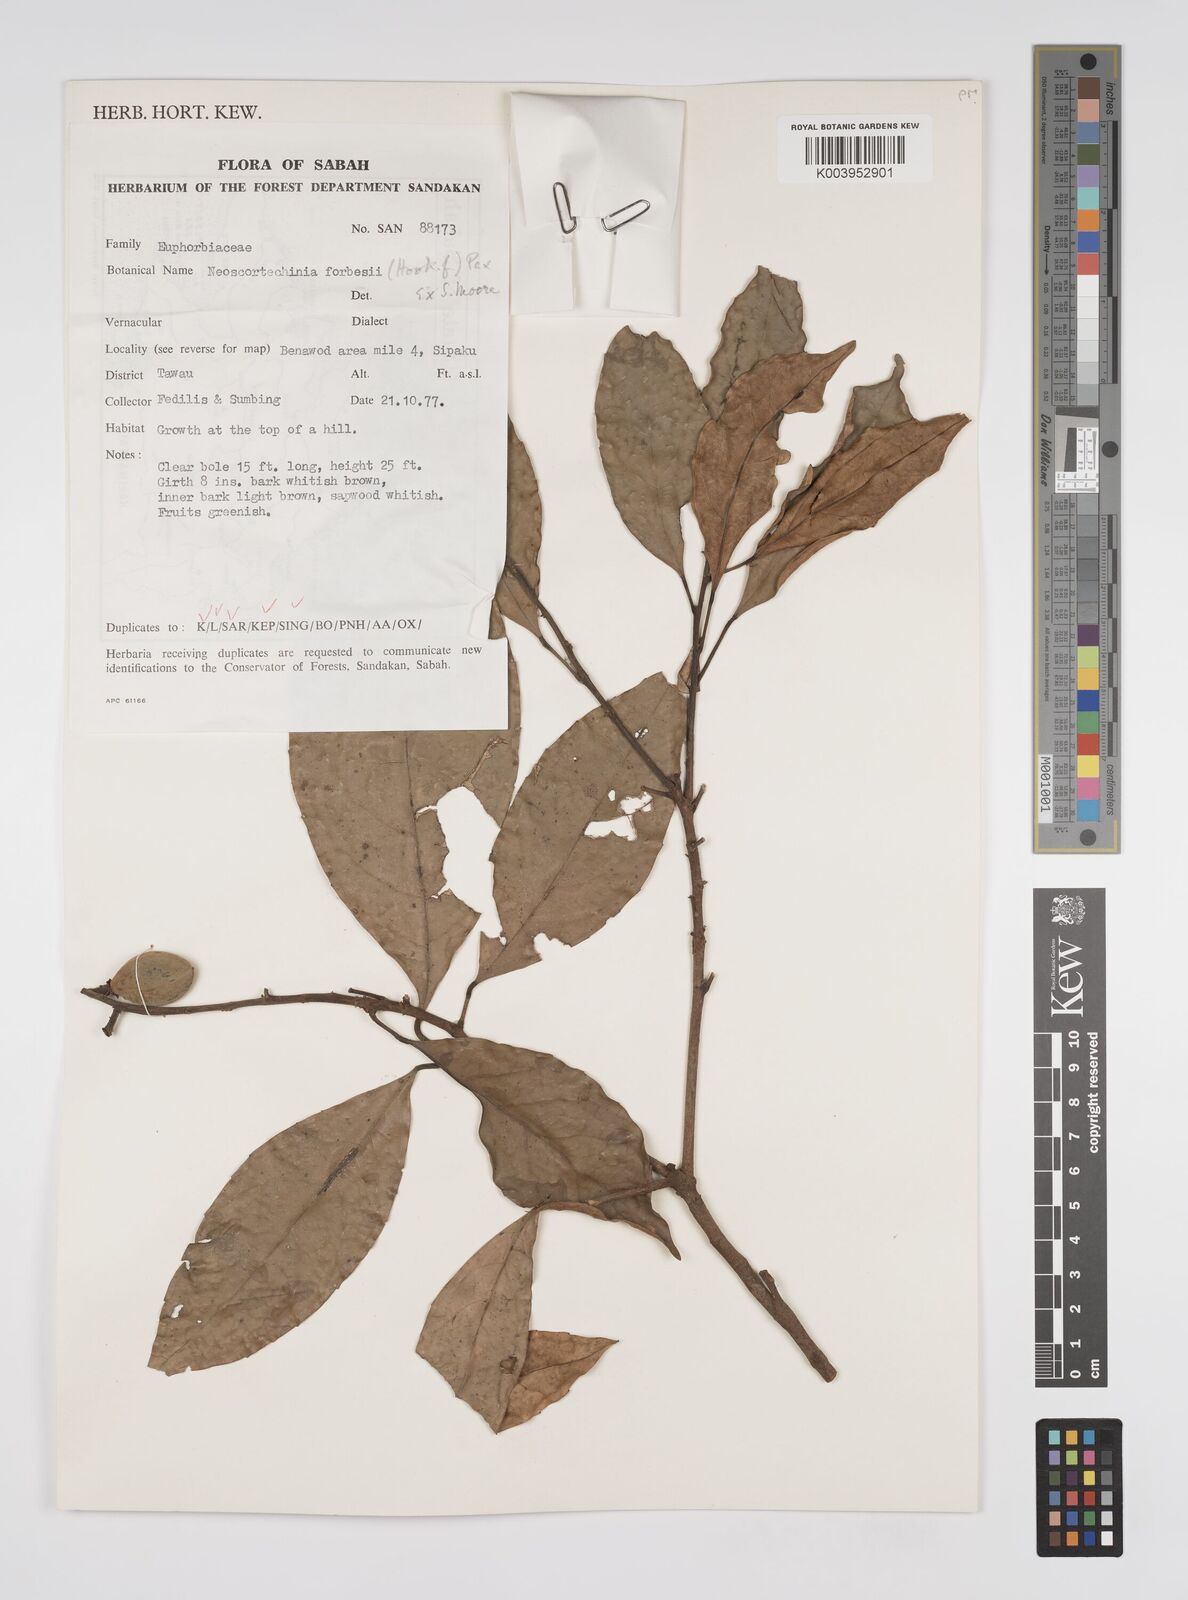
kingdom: Plantae
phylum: Tracheophyta
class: Magnoliopsida
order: Malpighiales
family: Euphorbiaceae
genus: Neoscortechinia
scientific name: Neoscortechinia philippinensis
